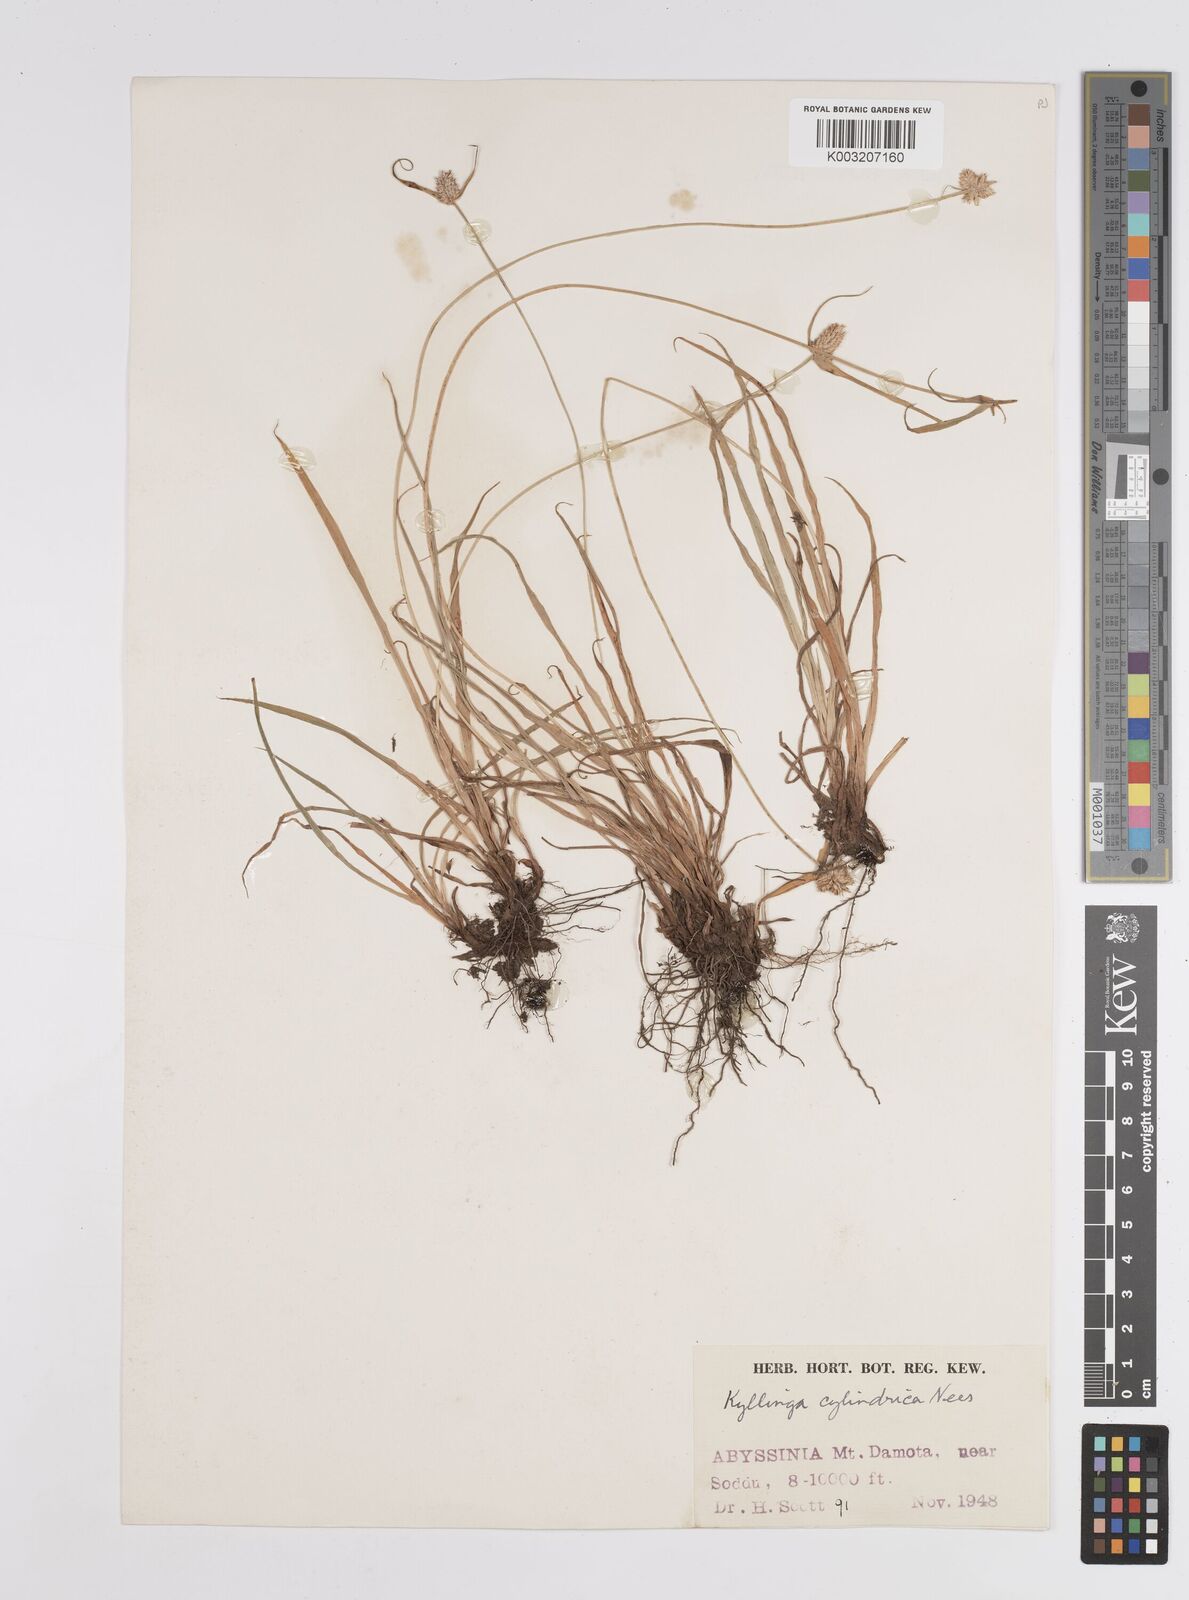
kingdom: Plantae
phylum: Tracheophyta
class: Liliopsida
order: Poales
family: Cyperaceae
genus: Cyperus
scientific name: Cyperus
